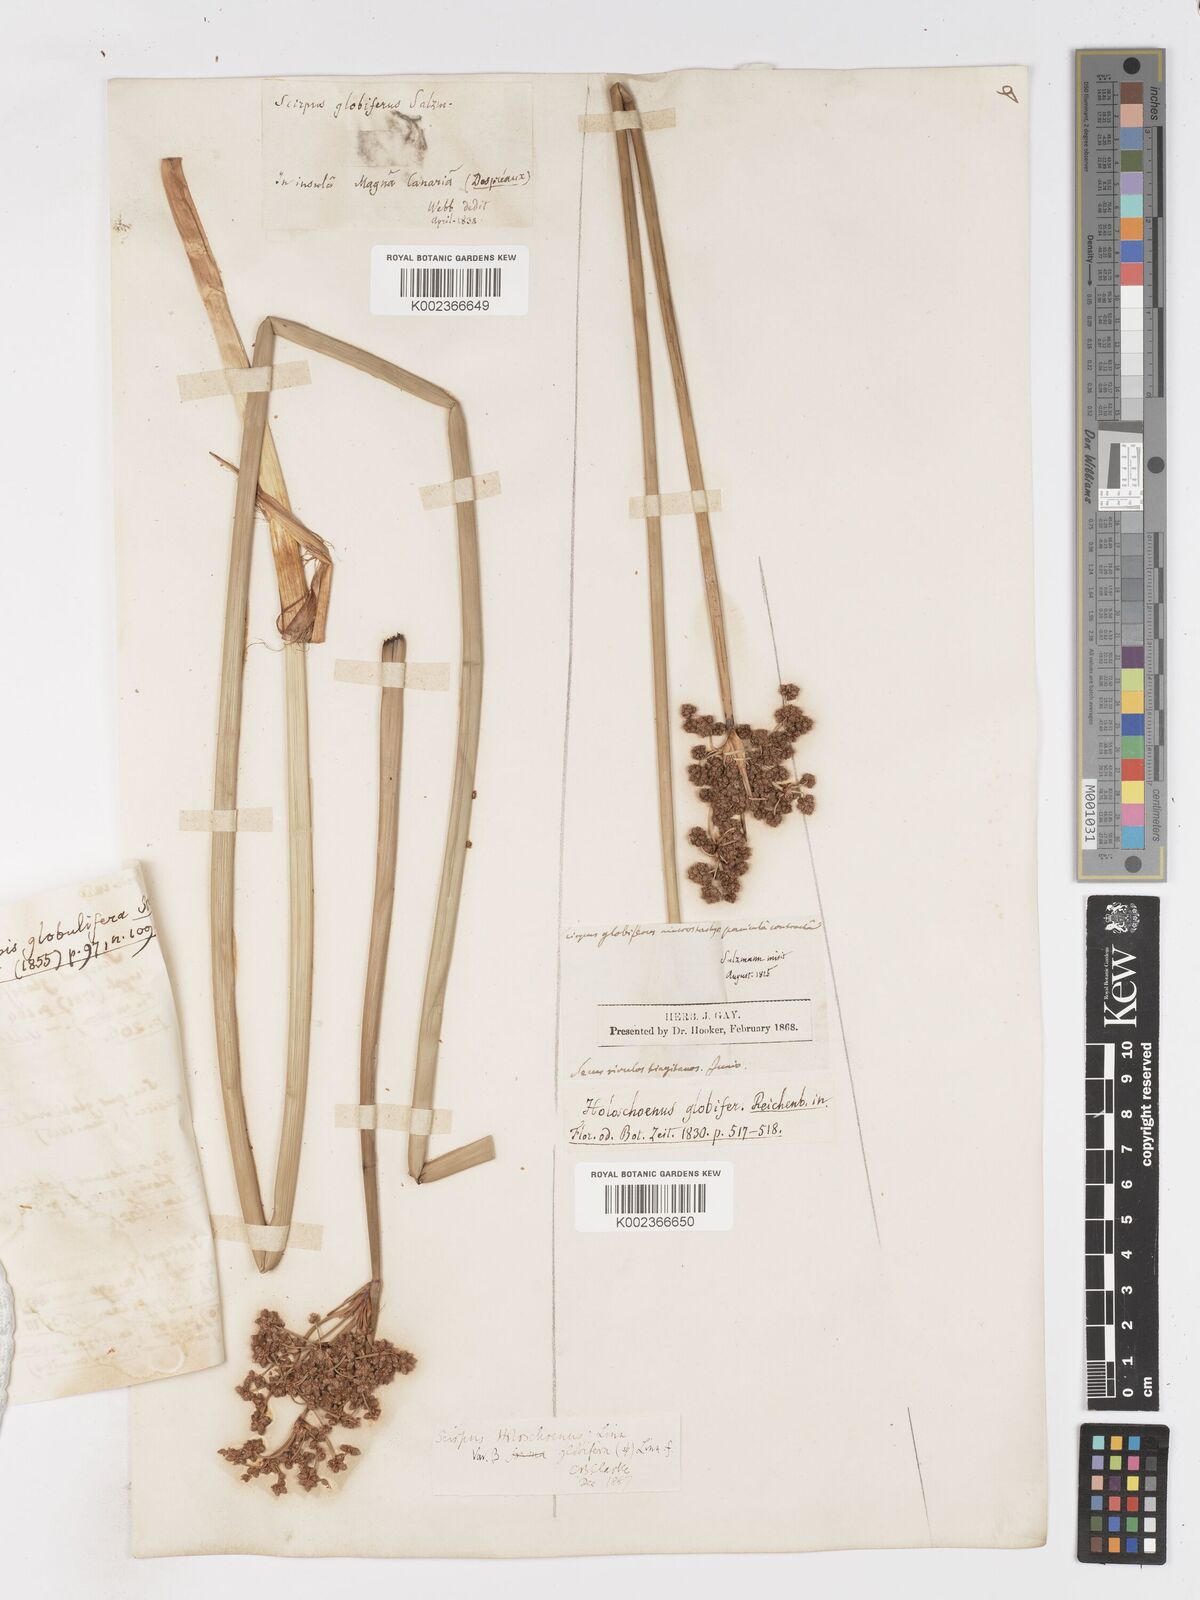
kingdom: Plantae
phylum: Tracheophyta
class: Liliopsida
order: Poales
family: Cyperaceae
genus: Scirpoides
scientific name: Scirpoides holoschoenus
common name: Round-headed club-rush
